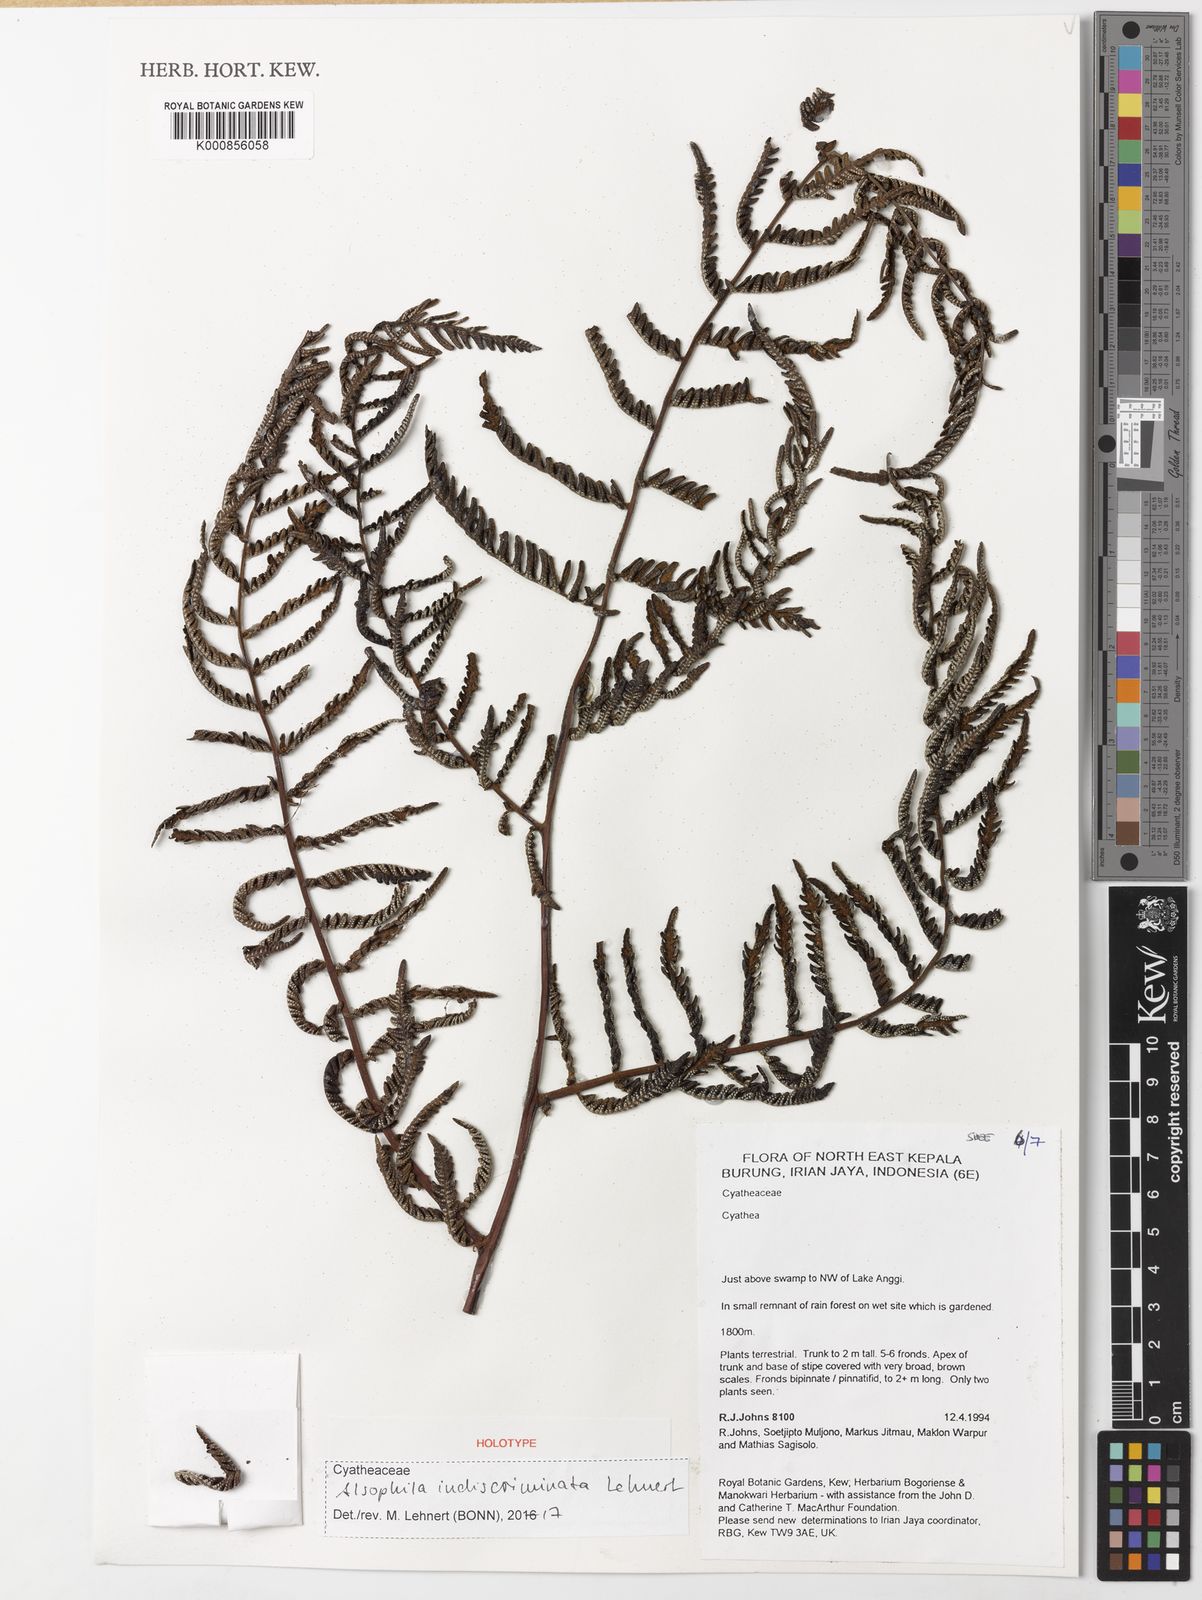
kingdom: Plantae
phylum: Tracheophyta
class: Polypodiopsida
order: Cyatheales
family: Cyatheaceae
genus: Alsophila
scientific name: Alsophila indiscriminata
